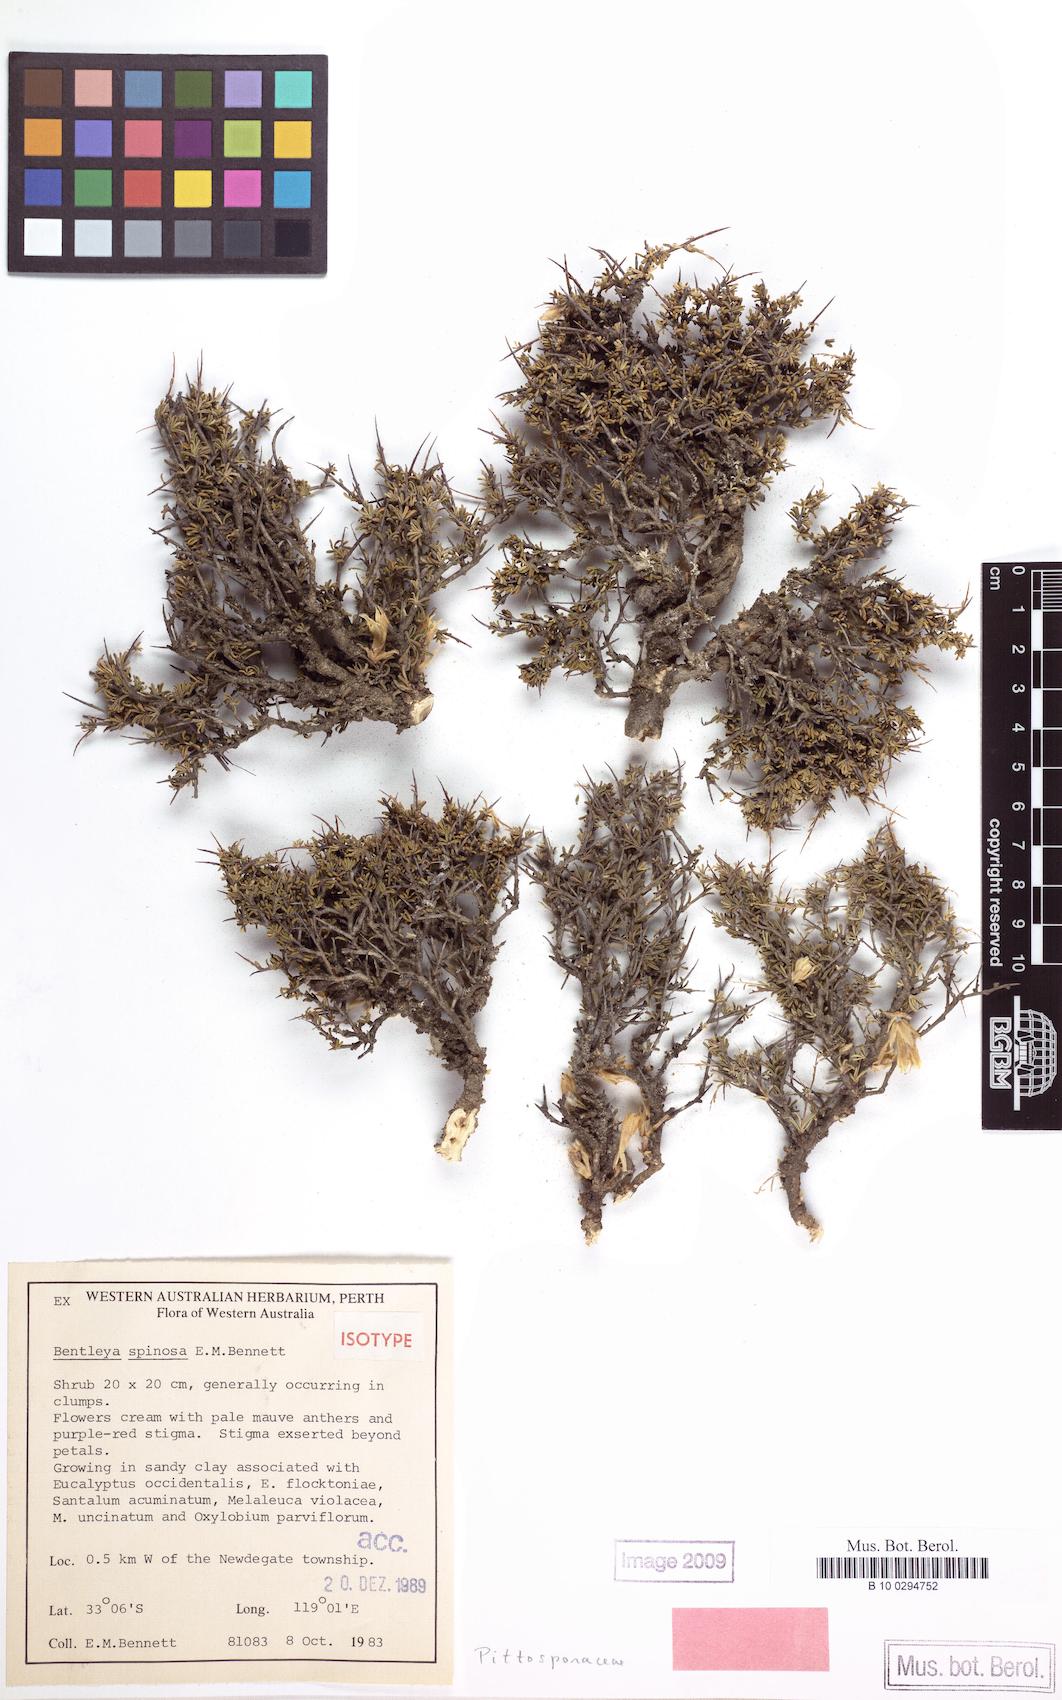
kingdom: Plantae
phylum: Tracheophyta
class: Magnoliopsida
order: Apiales
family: Pittosporaceae
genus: Bentleya
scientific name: Bentleya spinescens
